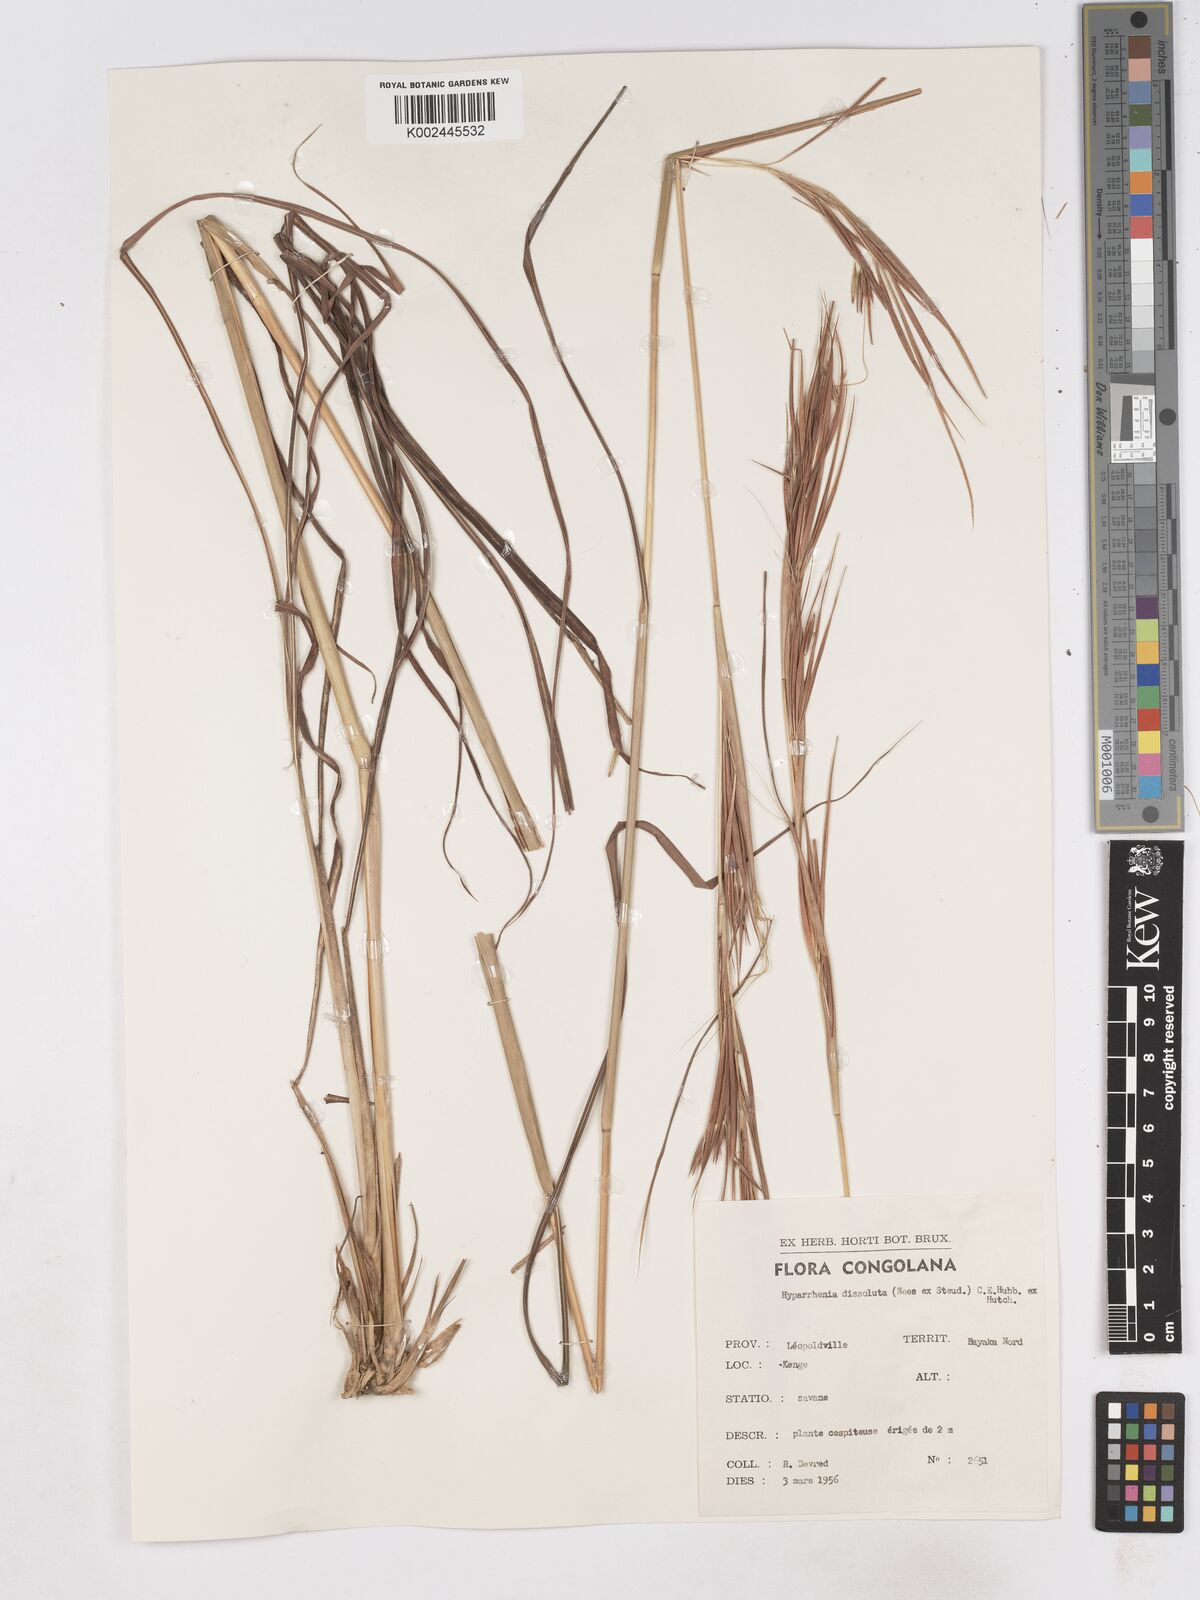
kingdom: Plantae
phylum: Tracheophyta
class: Liliopsida
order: Poales
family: Poaceae
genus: Hyperthelia
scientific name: Hyperthelia dissoluta
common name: Yellow thatching grass
